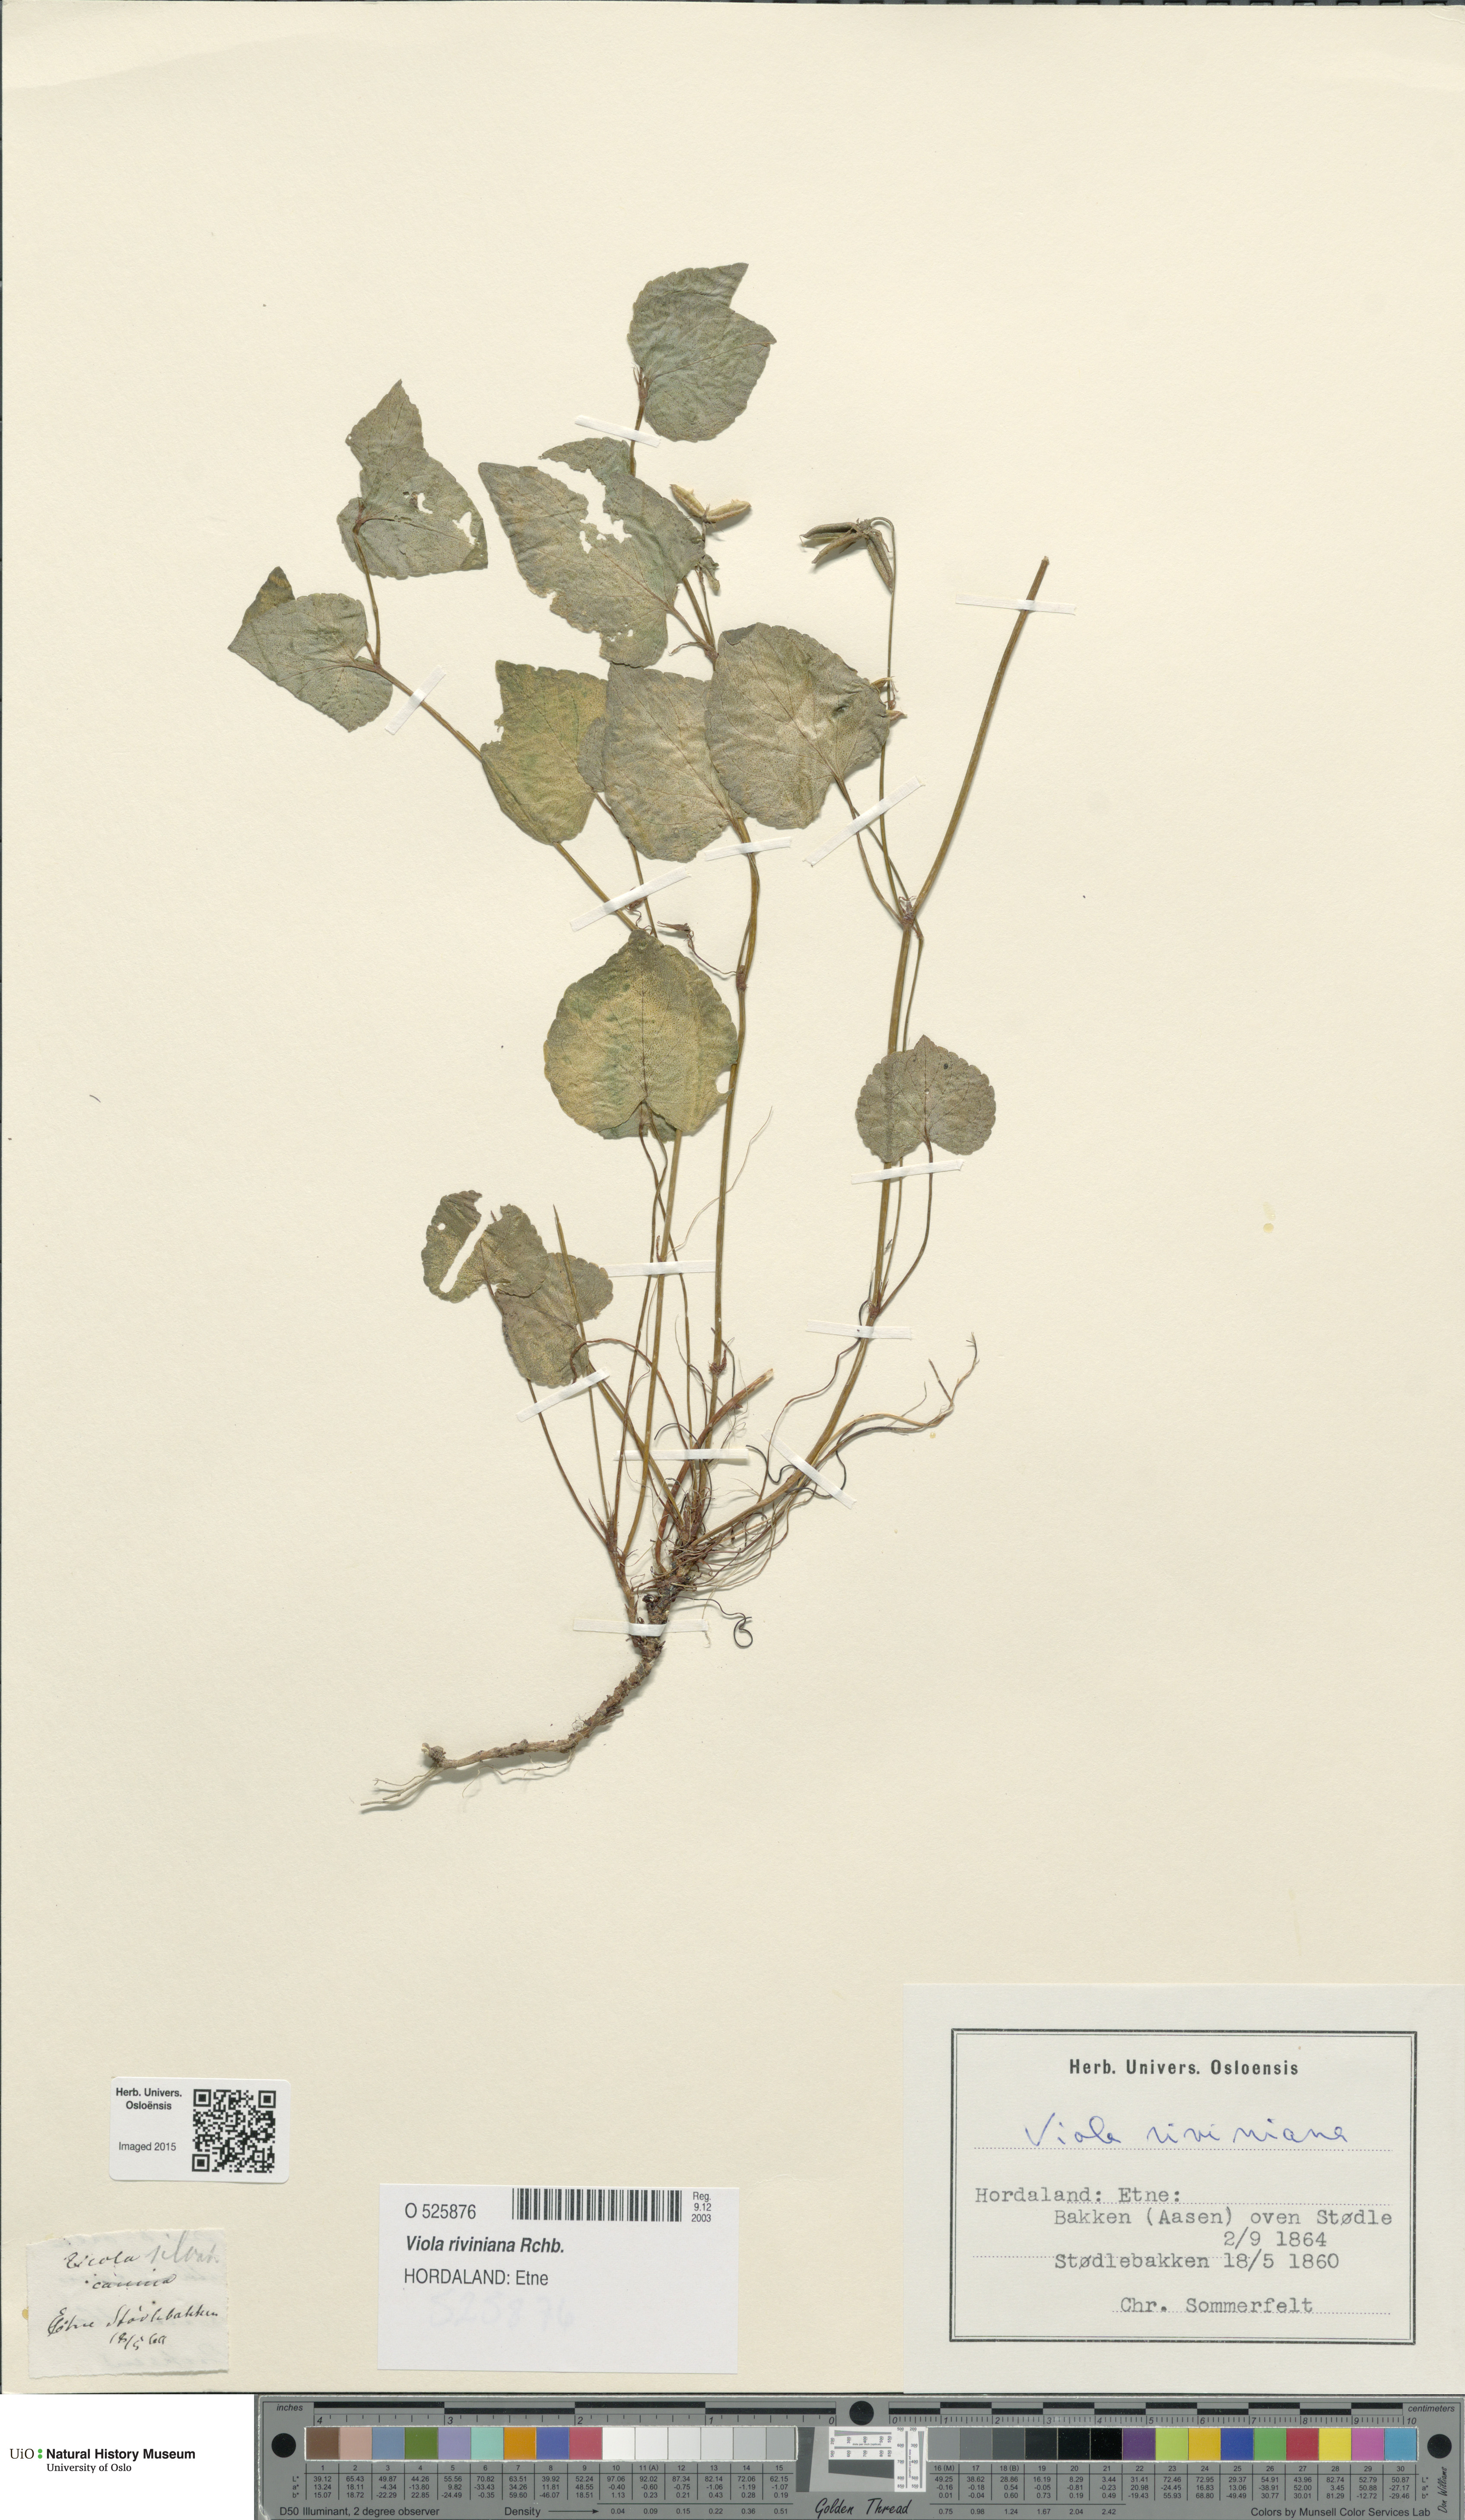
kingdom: Plantae
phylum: Tracheophyta
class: Magnoliopsida
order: Malpighiales
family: Violaceae
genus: Viola
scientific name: Viola riviniana
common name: Common dog-violet
